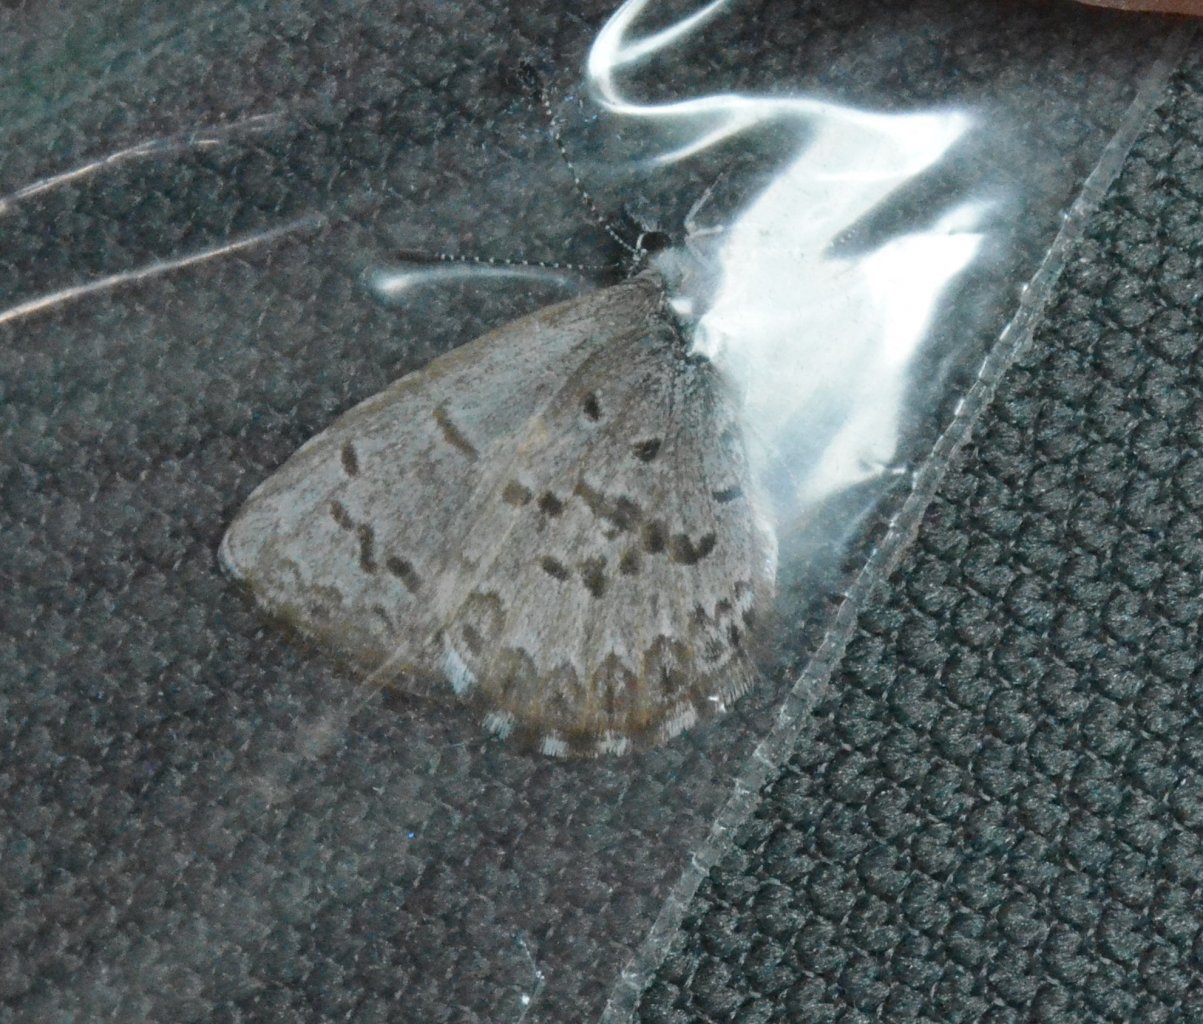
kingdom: Animalia
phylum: Arthropoda
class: Insecta
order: Lepidoptera
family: Lycaenidae
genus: Celastrina
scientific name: Celastrina lucia
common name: Northern Spring Azure
